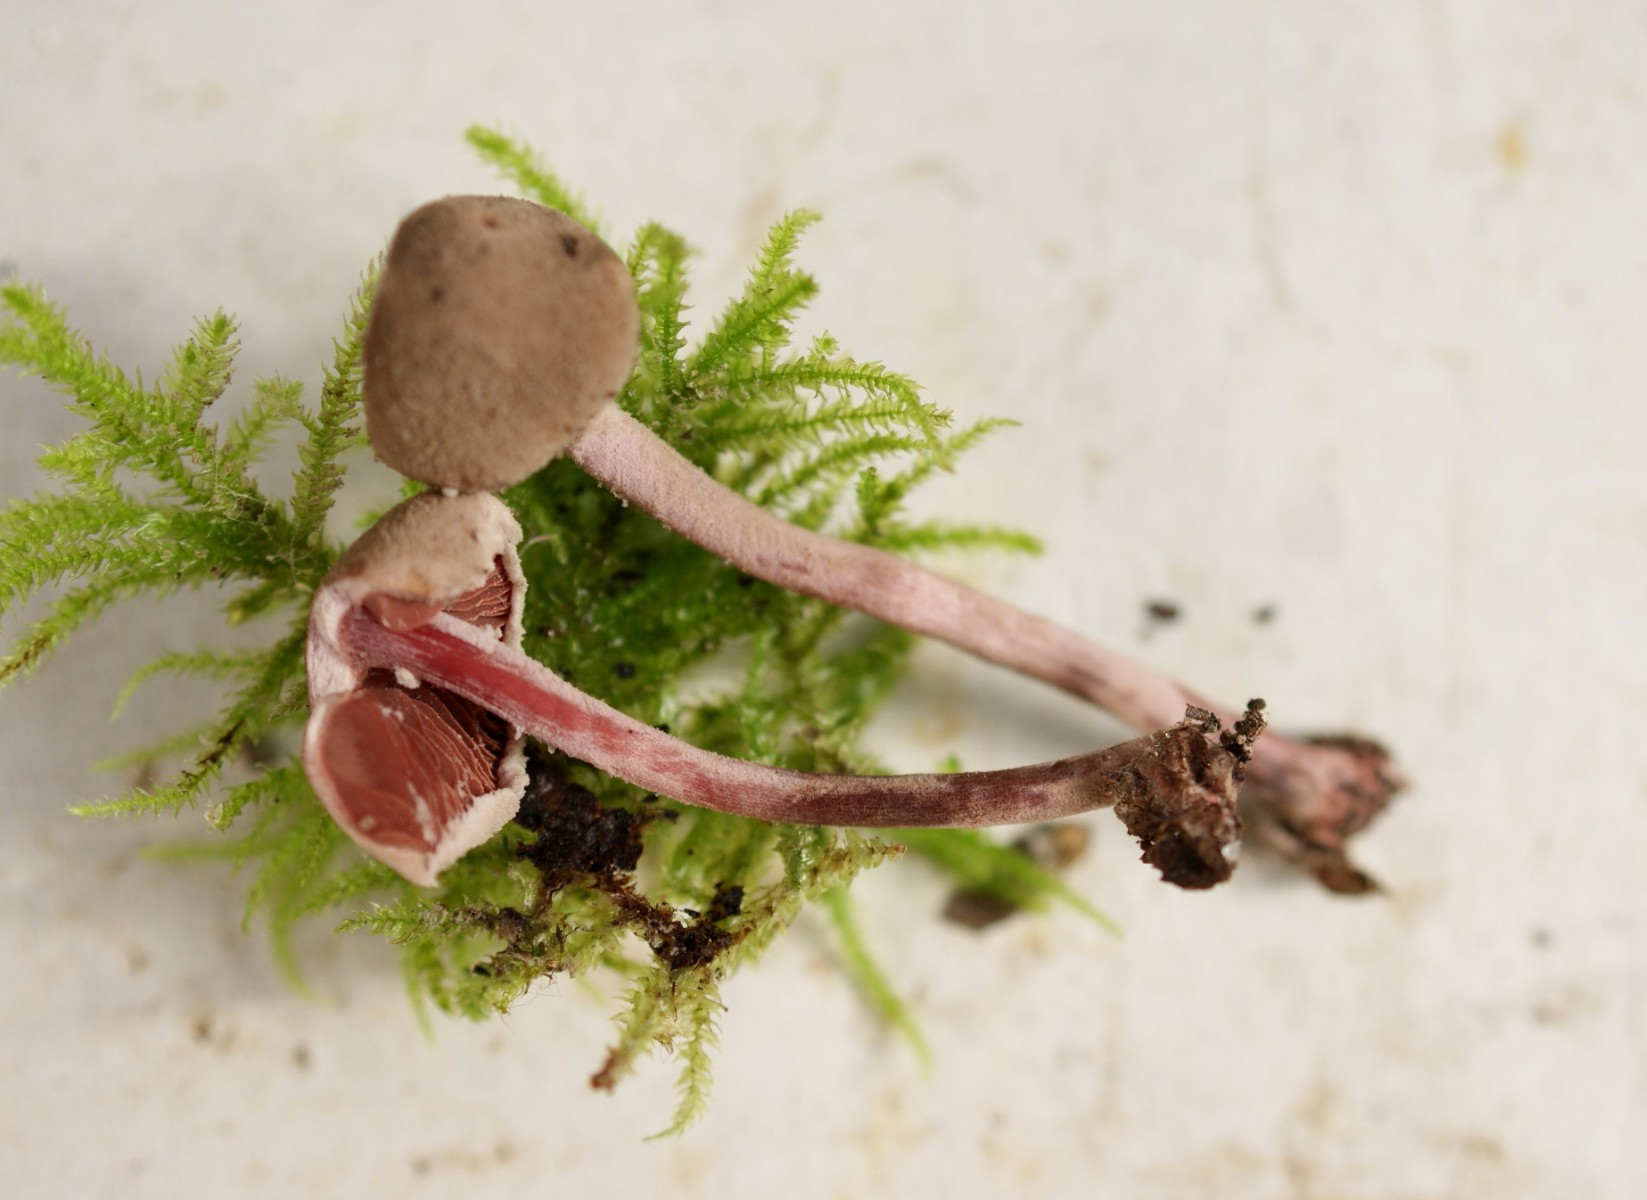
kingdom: Fungi
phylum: Basidiomycota
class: Agaricomycetes
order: Agaricales
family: Agaricaceae
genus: Melanophyllum
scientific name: Melanophyllum haematospermum
